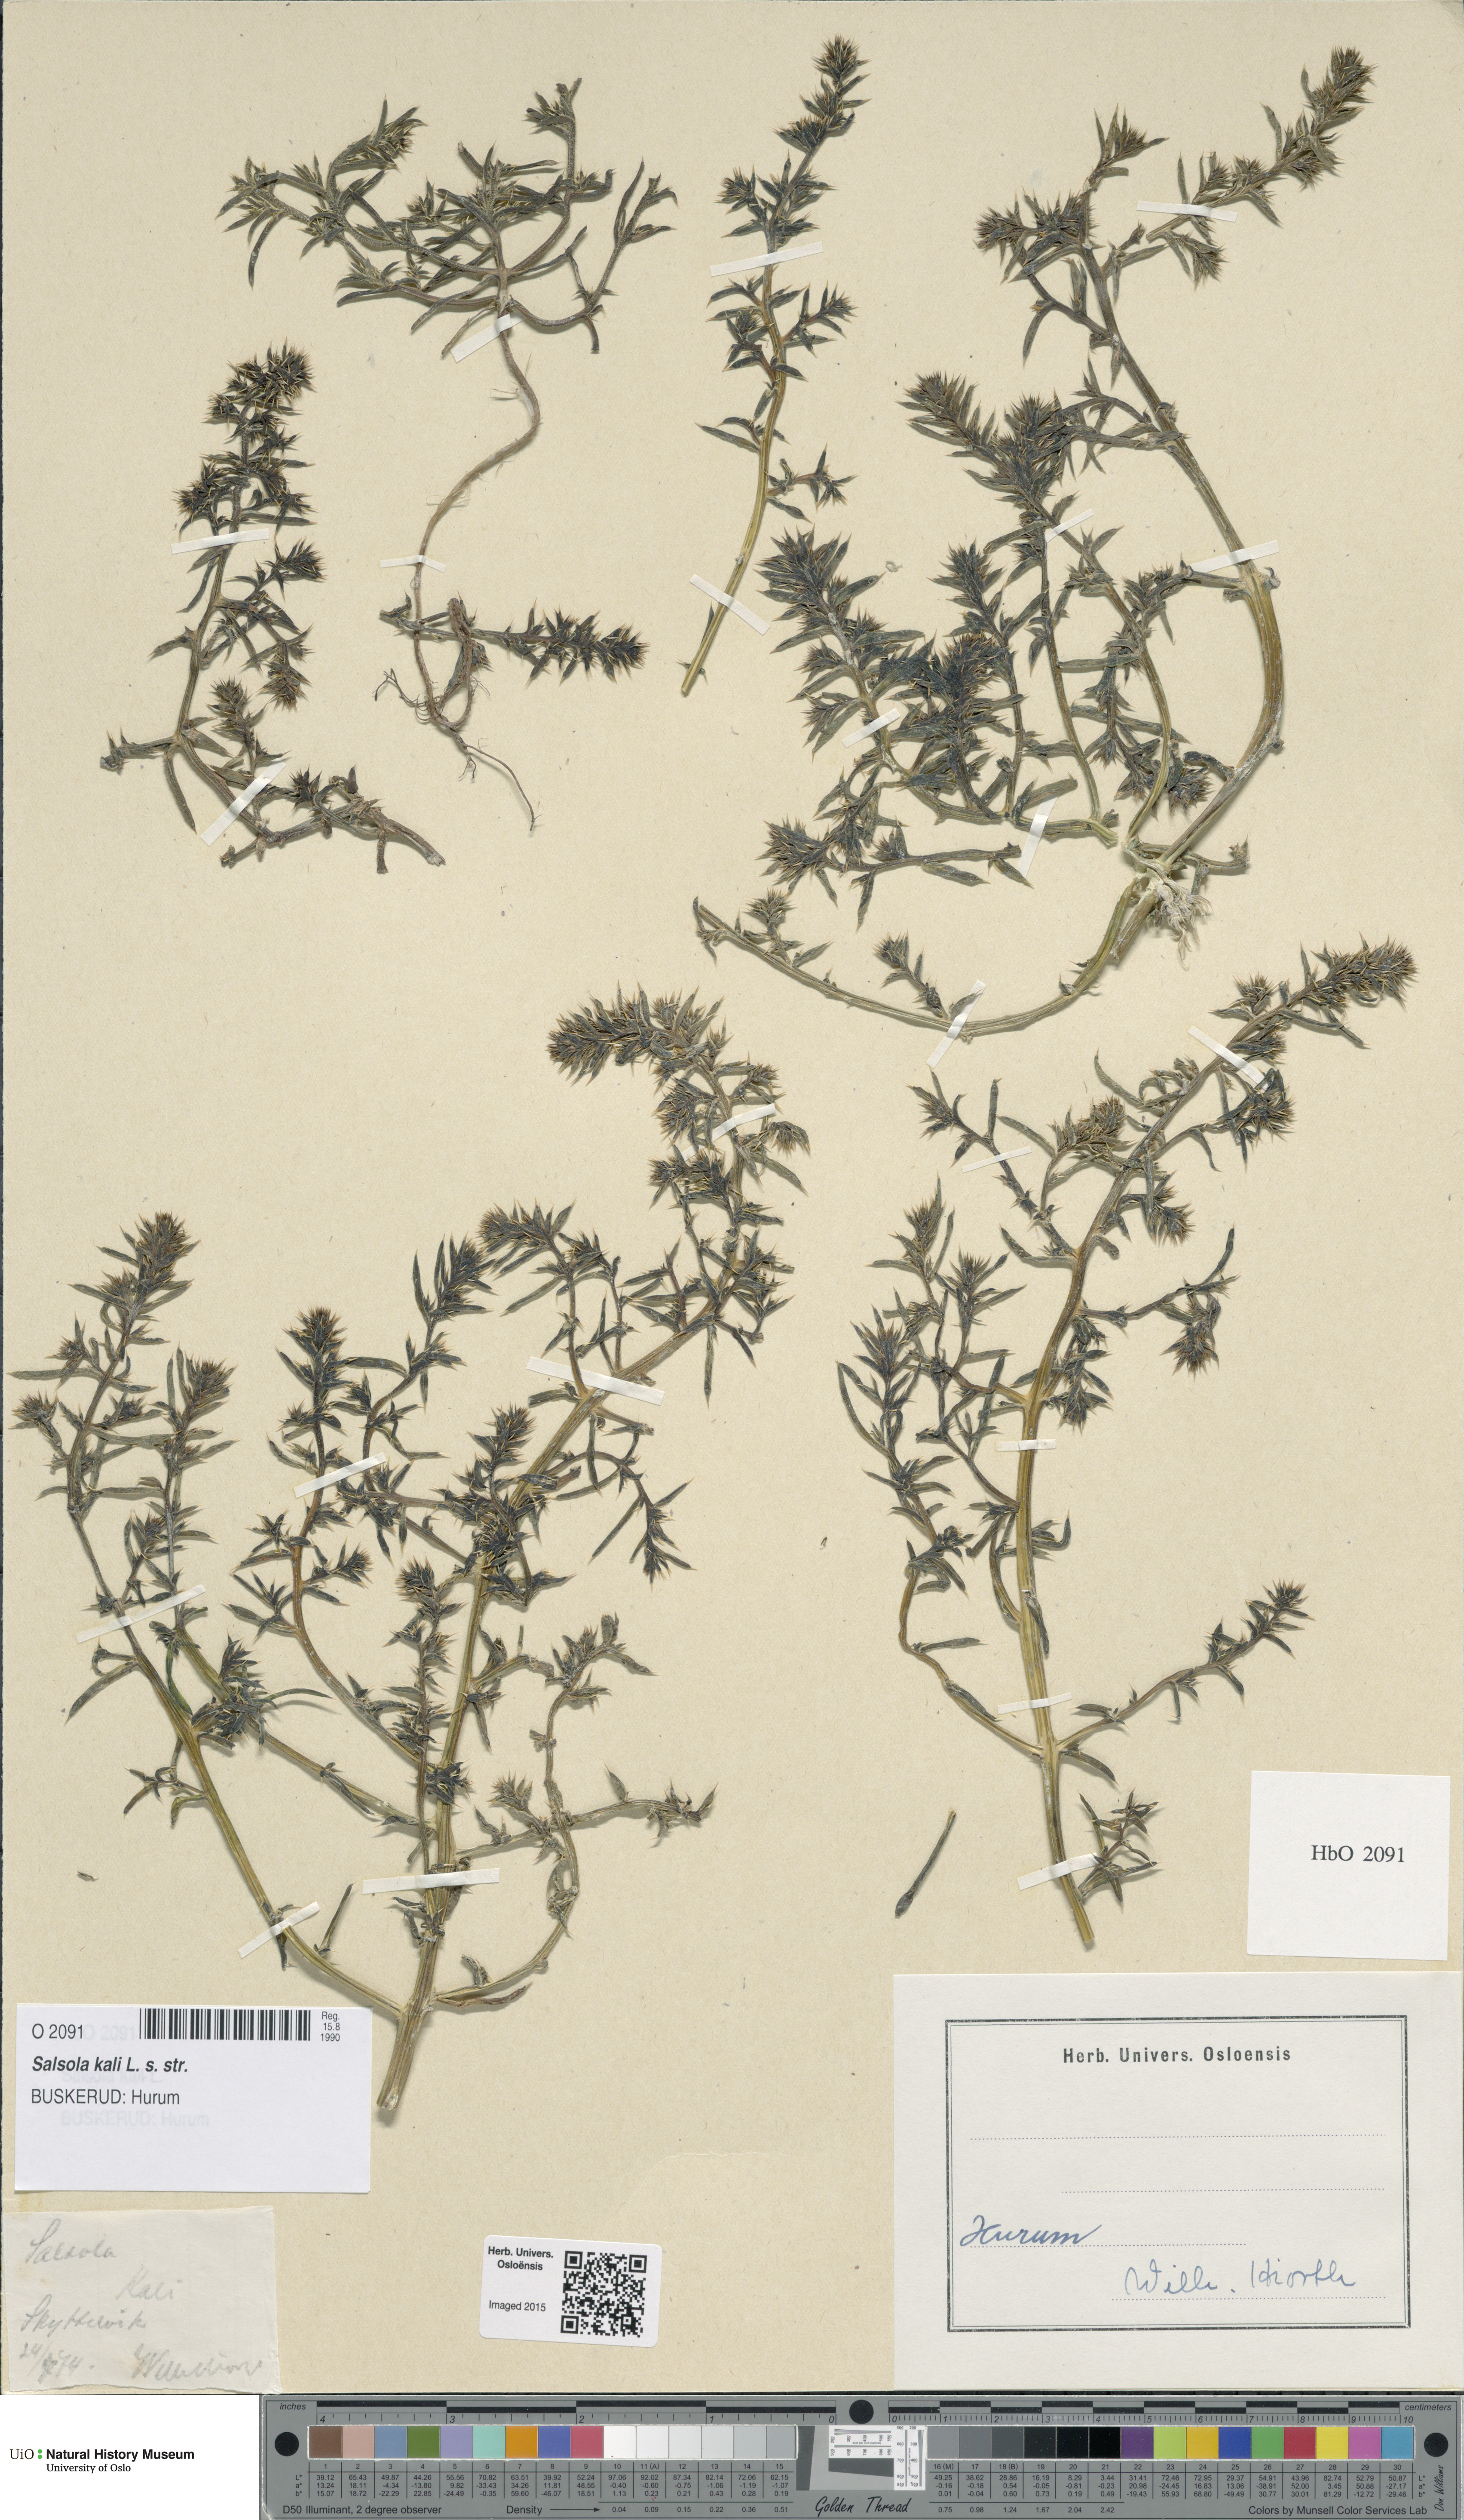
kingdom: Plantae
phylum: Tracheophyta
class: Magnoliopsida
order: Caryophyllales
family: Amaranthaceae
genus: Salsola
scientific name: Salsola kali
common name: Saltwort
